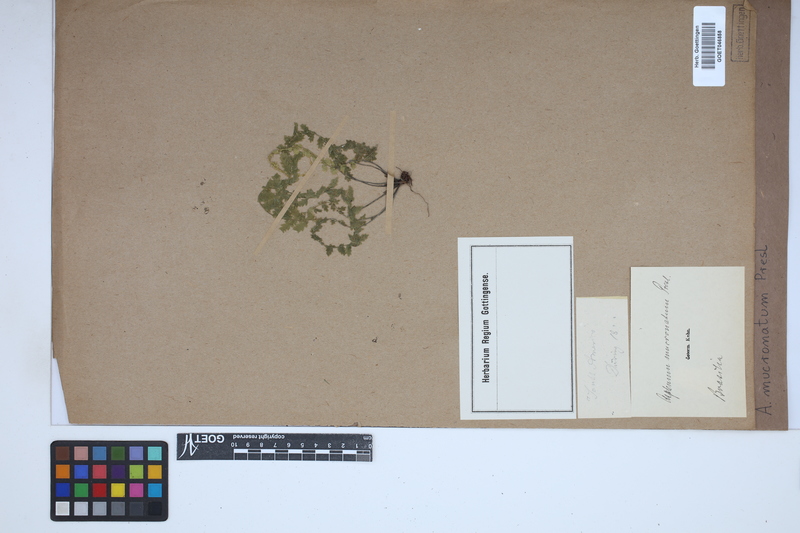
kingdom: Plantae
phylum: Tracheophyta
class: Polypodiopsida
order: Polypodiales
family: Aspleniaceae
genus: Asplenium
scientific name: Asplenium mucronatum
